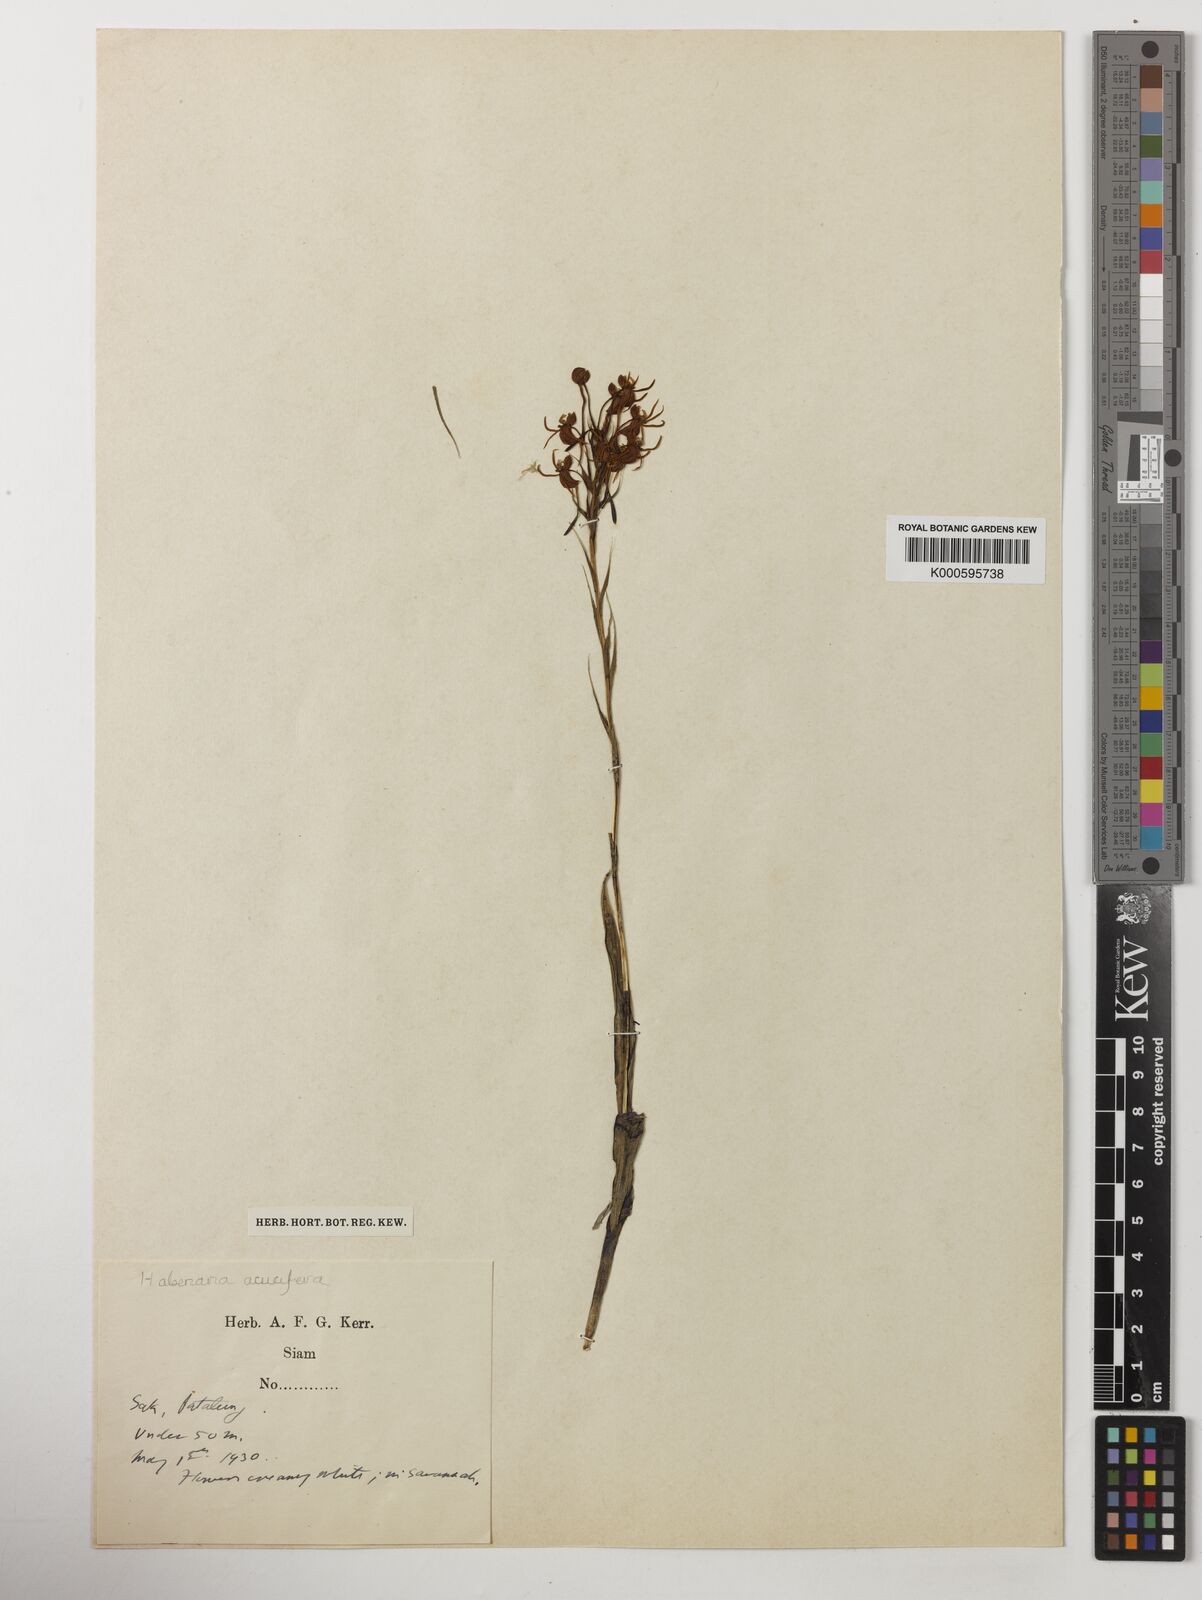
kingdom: Plantae
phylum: Tracheophyta
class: Liliopsida
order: Asparagales
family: Orchidaceae
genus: Habenaria
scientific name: Habenaria acuifera
